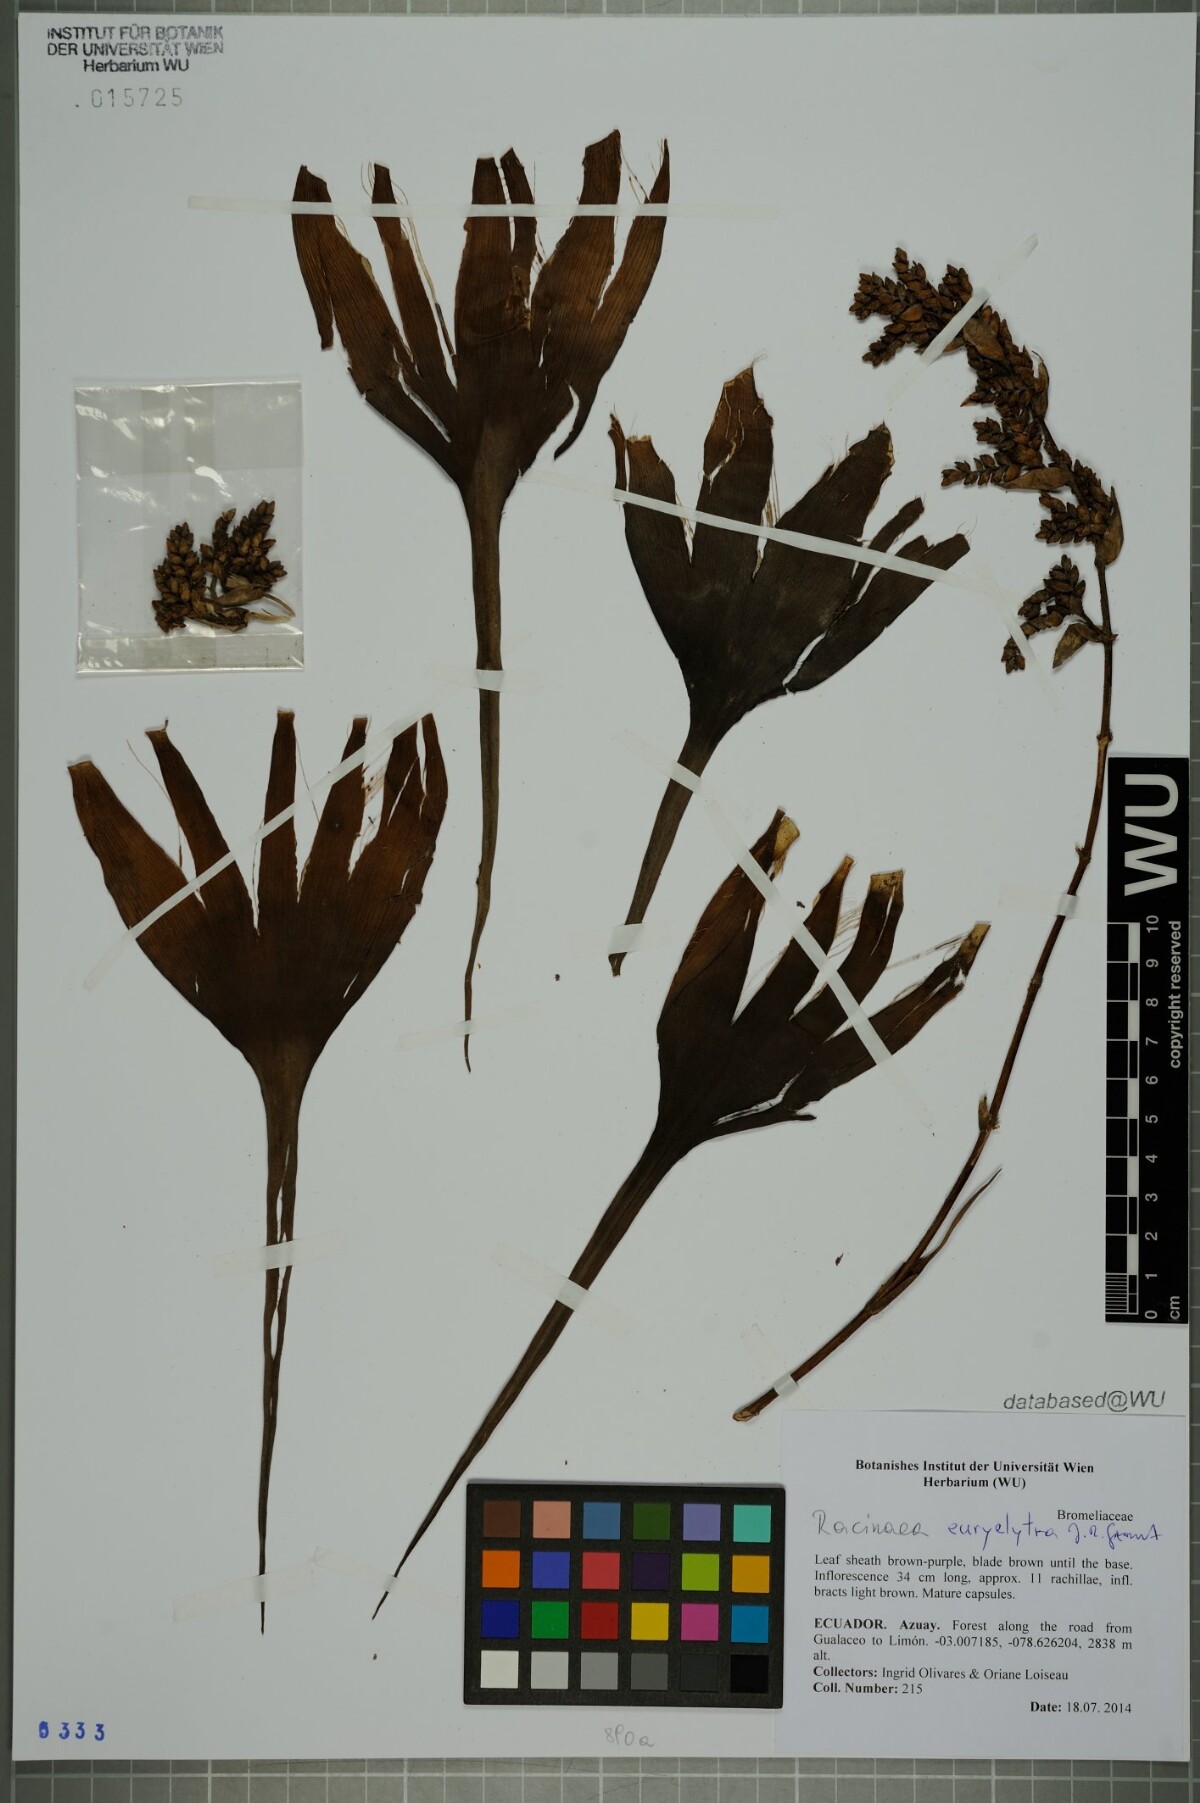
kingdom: Plantae
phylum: Tracheophyta
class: Liliopsida
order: Poales
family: Bromeliaceae
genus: Racinaea
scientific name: Racinaea euryelytra
